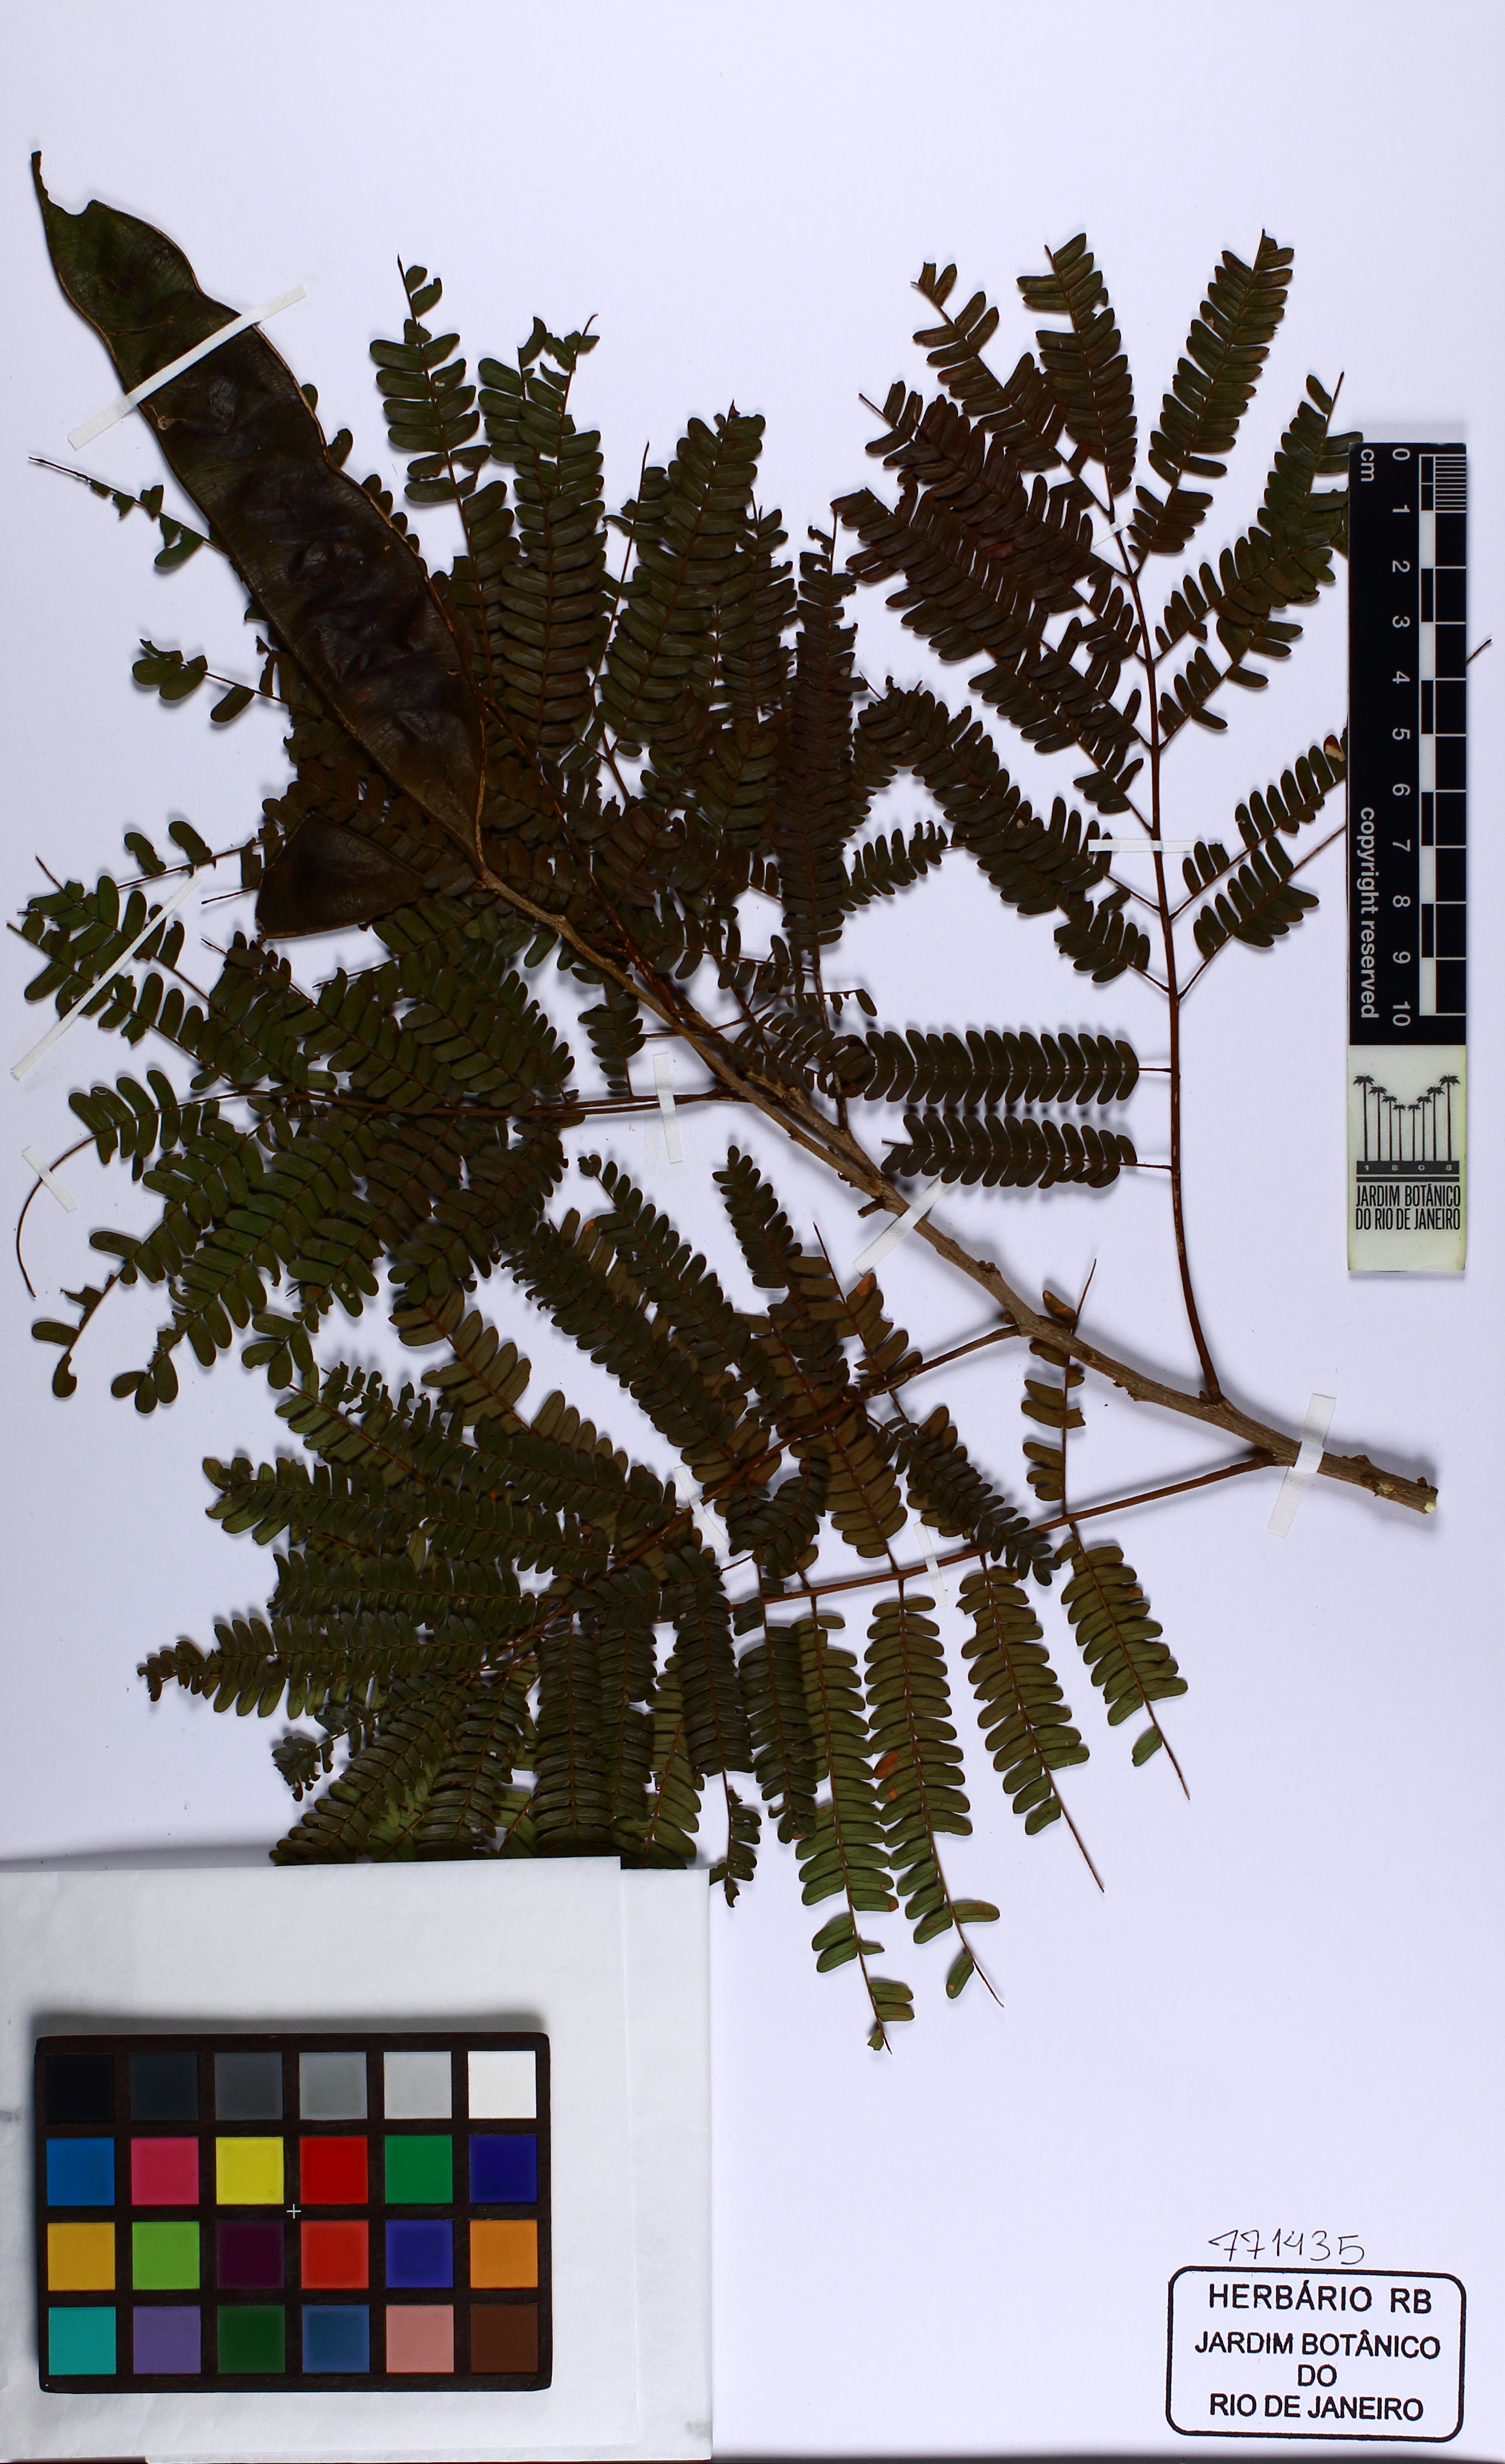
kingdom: Plantae
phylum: Tracheophyta
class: Magnoliopsida
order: Fabales
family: Fabaceae
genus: Albizia
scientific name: Albizia polycephala
